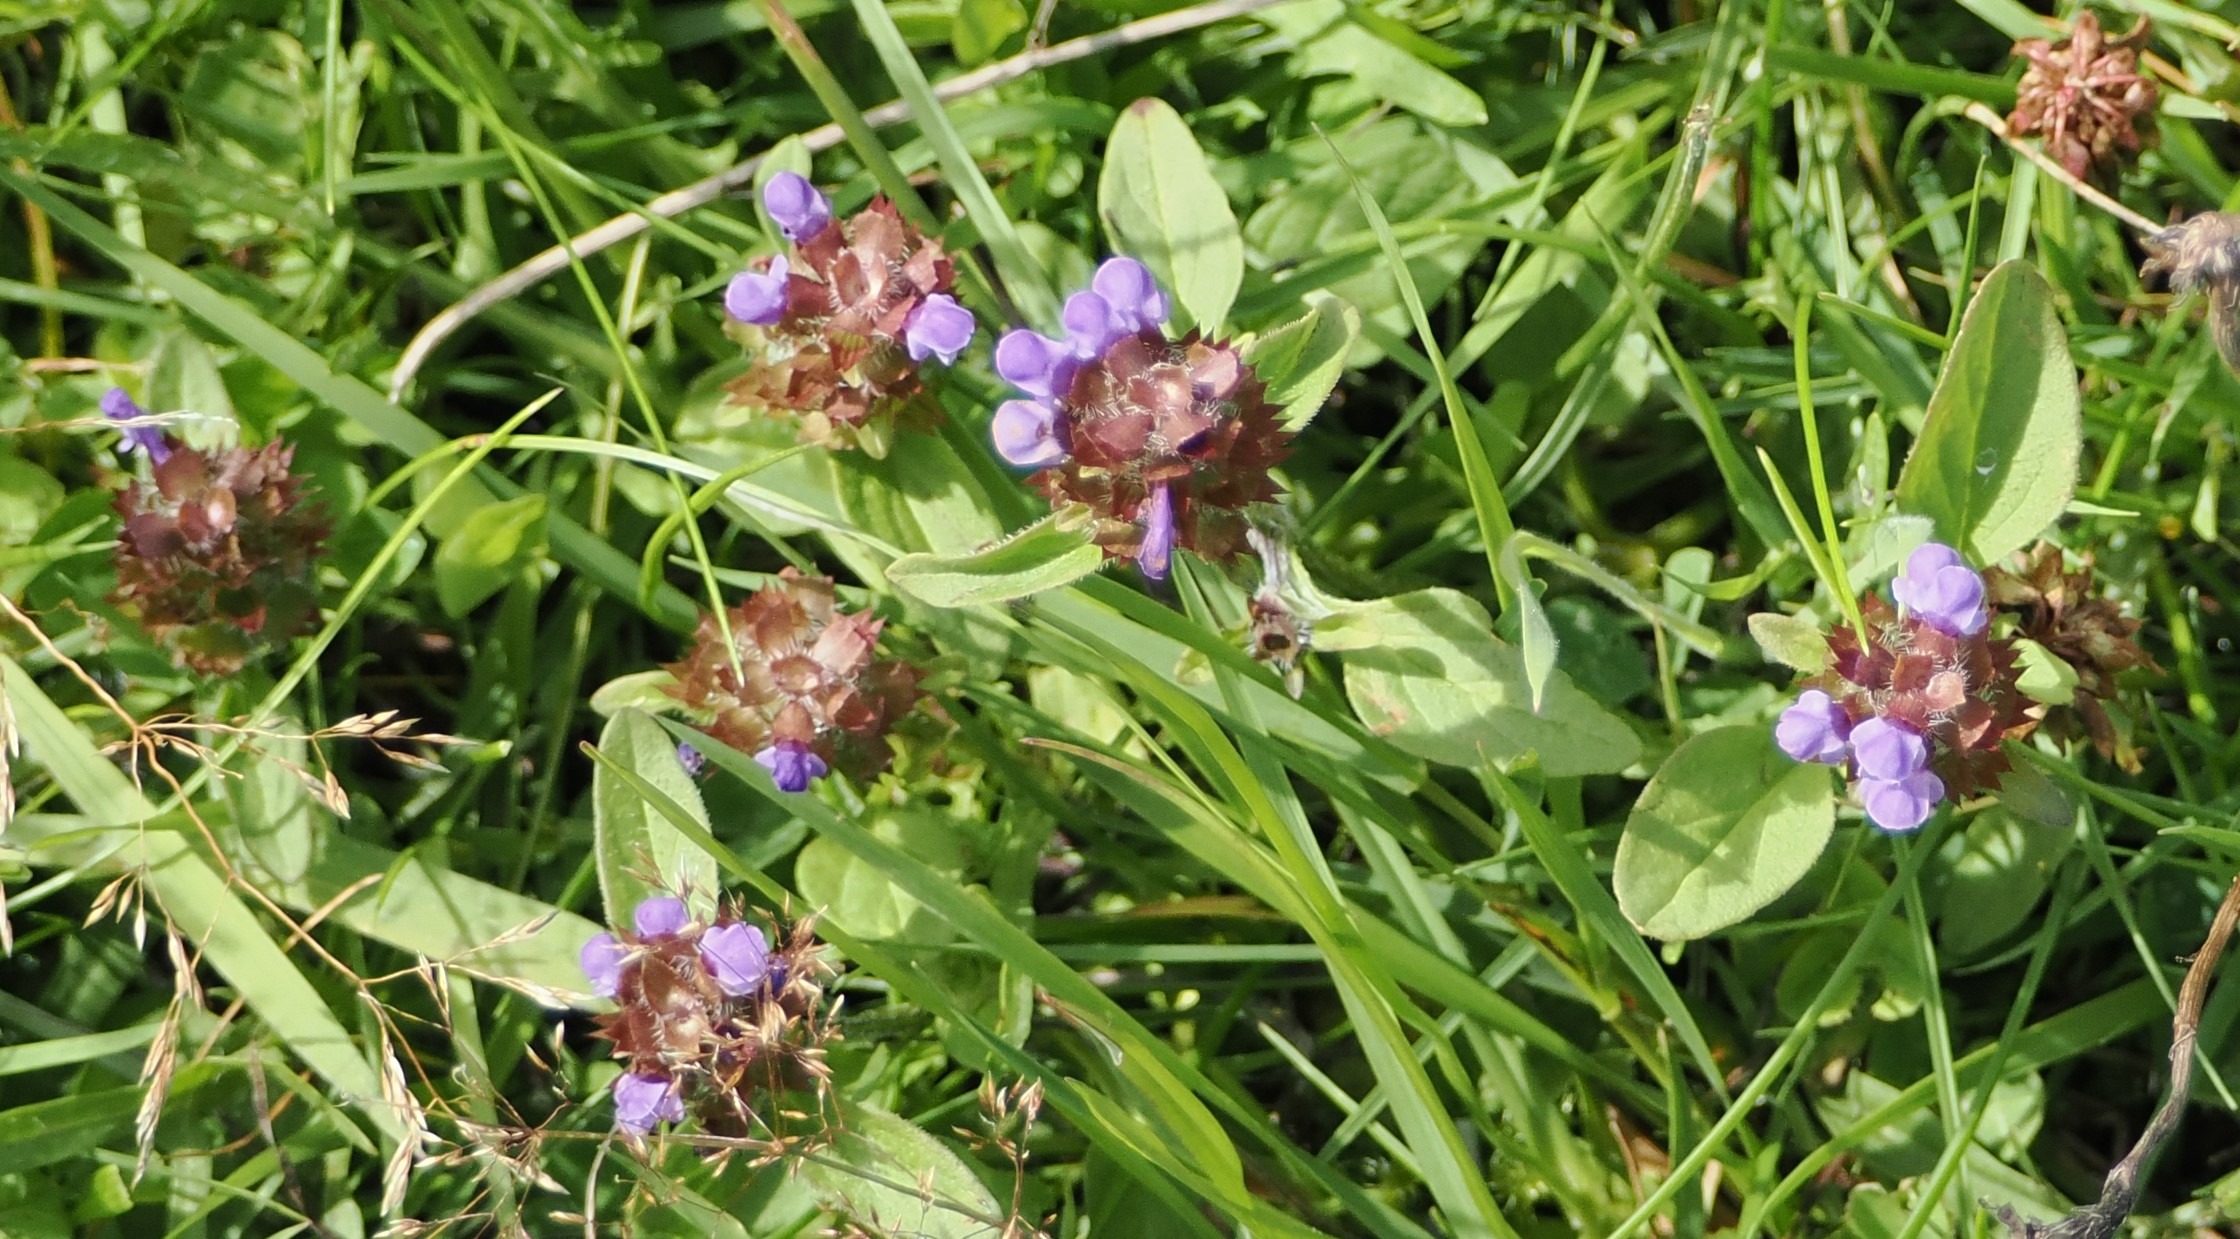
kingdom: Plantae
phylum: Tracheophyta
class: Magnoliopsida
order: Lamiales
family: Lamiaceae
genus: Prunella
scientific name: Prunella vulgaris
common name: Almindelig brunelle
